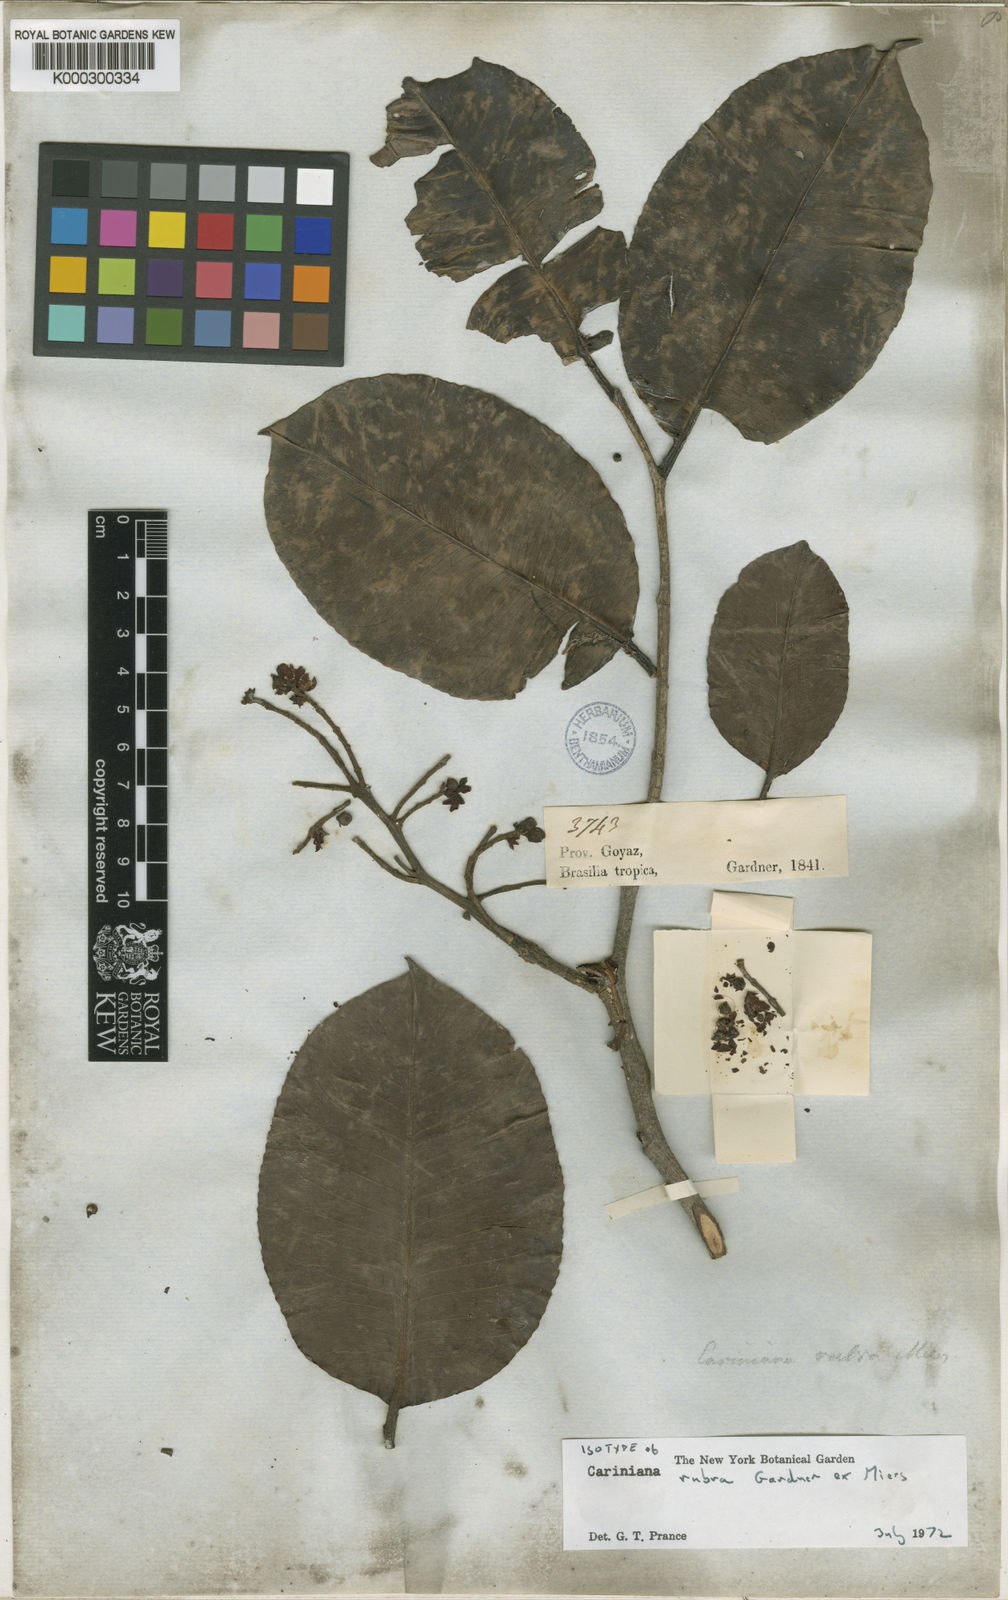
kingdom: Plantae
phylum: Tracheophyta
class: Magnoliopsida
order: Ericales
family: Lecythidaceae
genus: Cariniana
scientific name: Cariniana rubra
